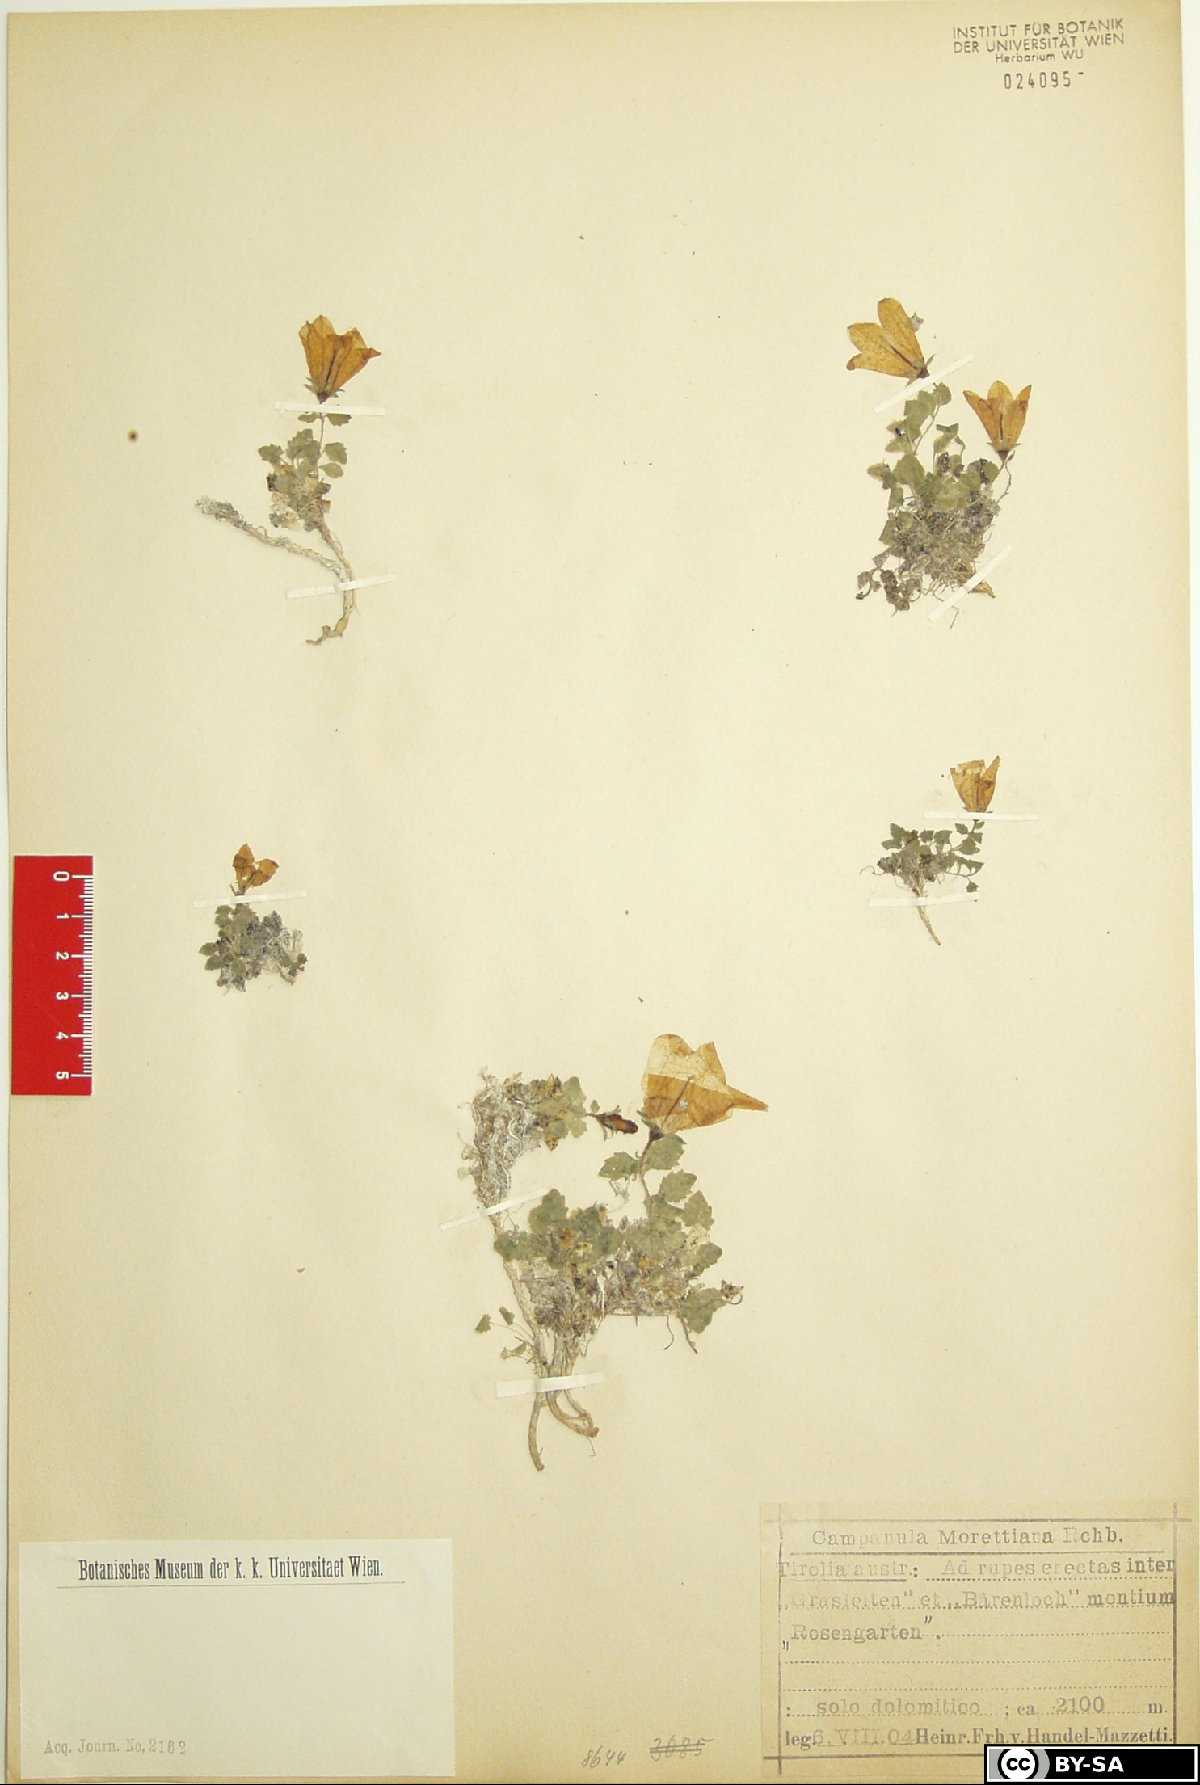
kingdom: Plantae
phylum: Tracheophyta
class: Magnoliopsida
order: Asterales
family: Campanulaceae
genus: Campanula
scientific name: Campanula morettiana
